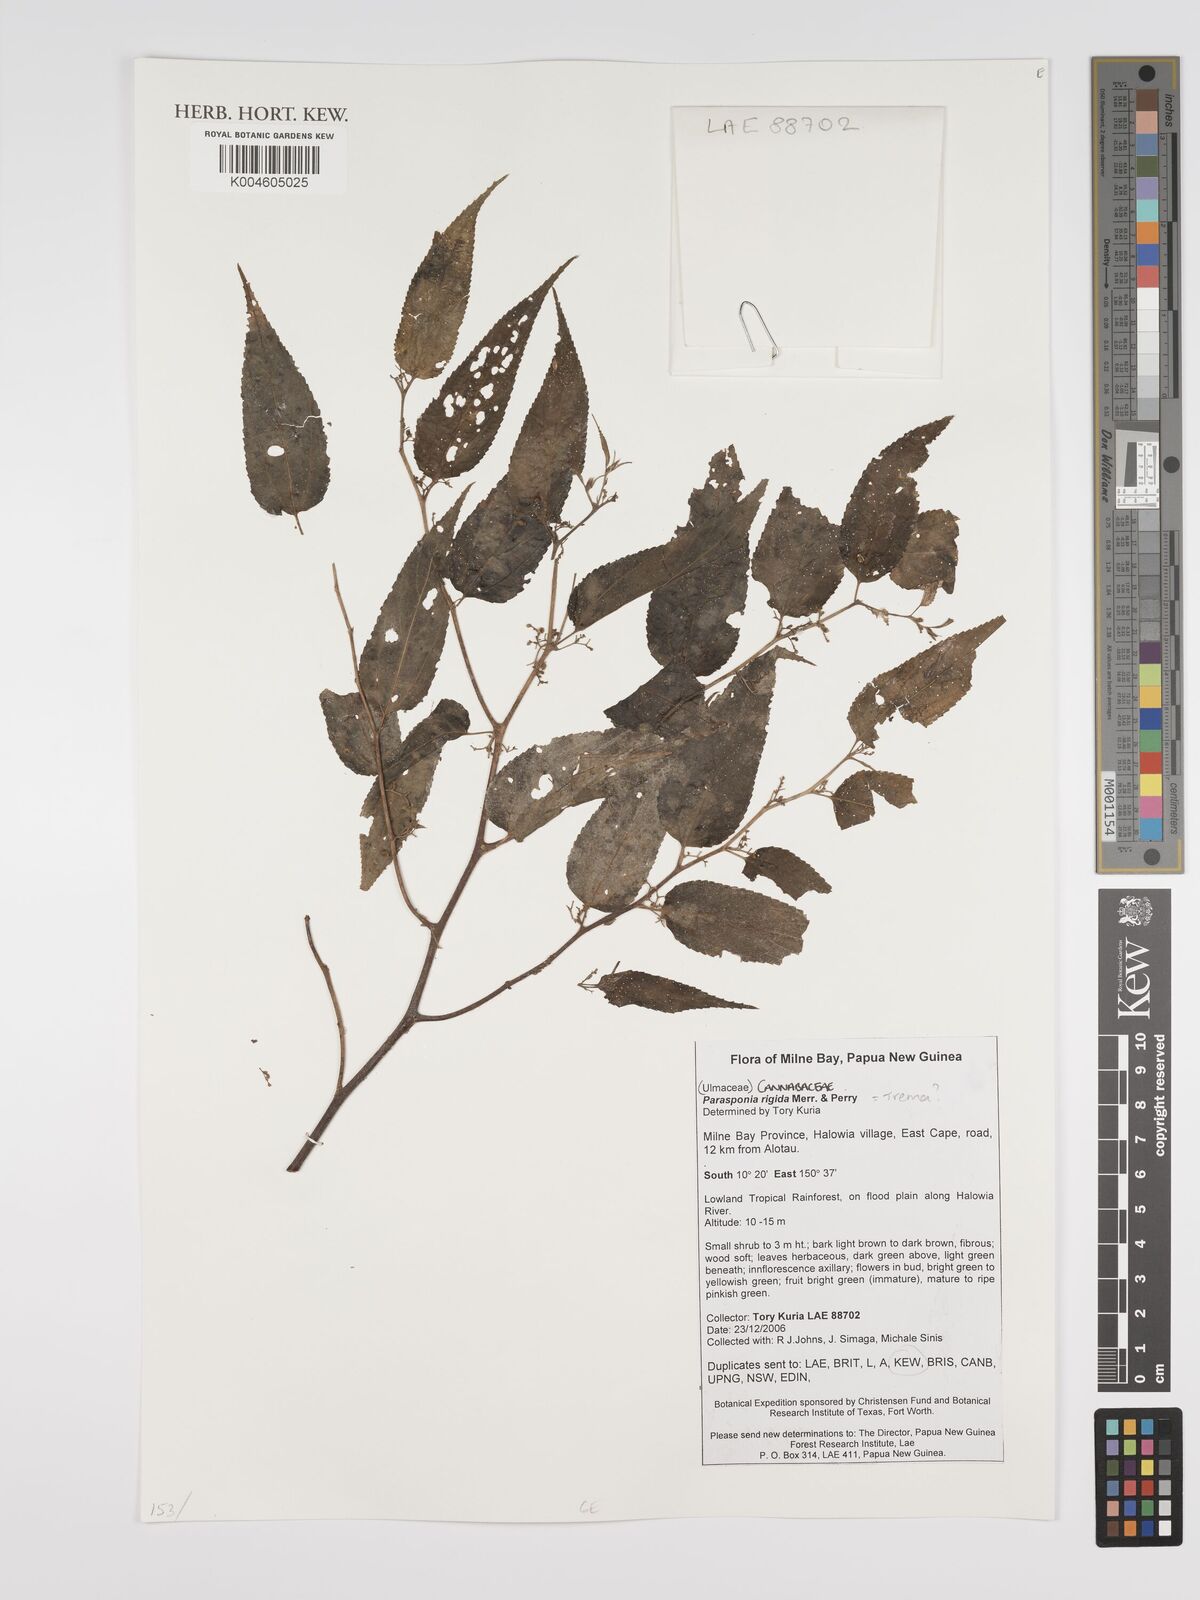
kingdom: Plantae
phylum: Tracheophyta
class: Magnoliopsida
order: Rosales
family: Cannabaceae
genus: Trema
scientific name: Trema rigidum
